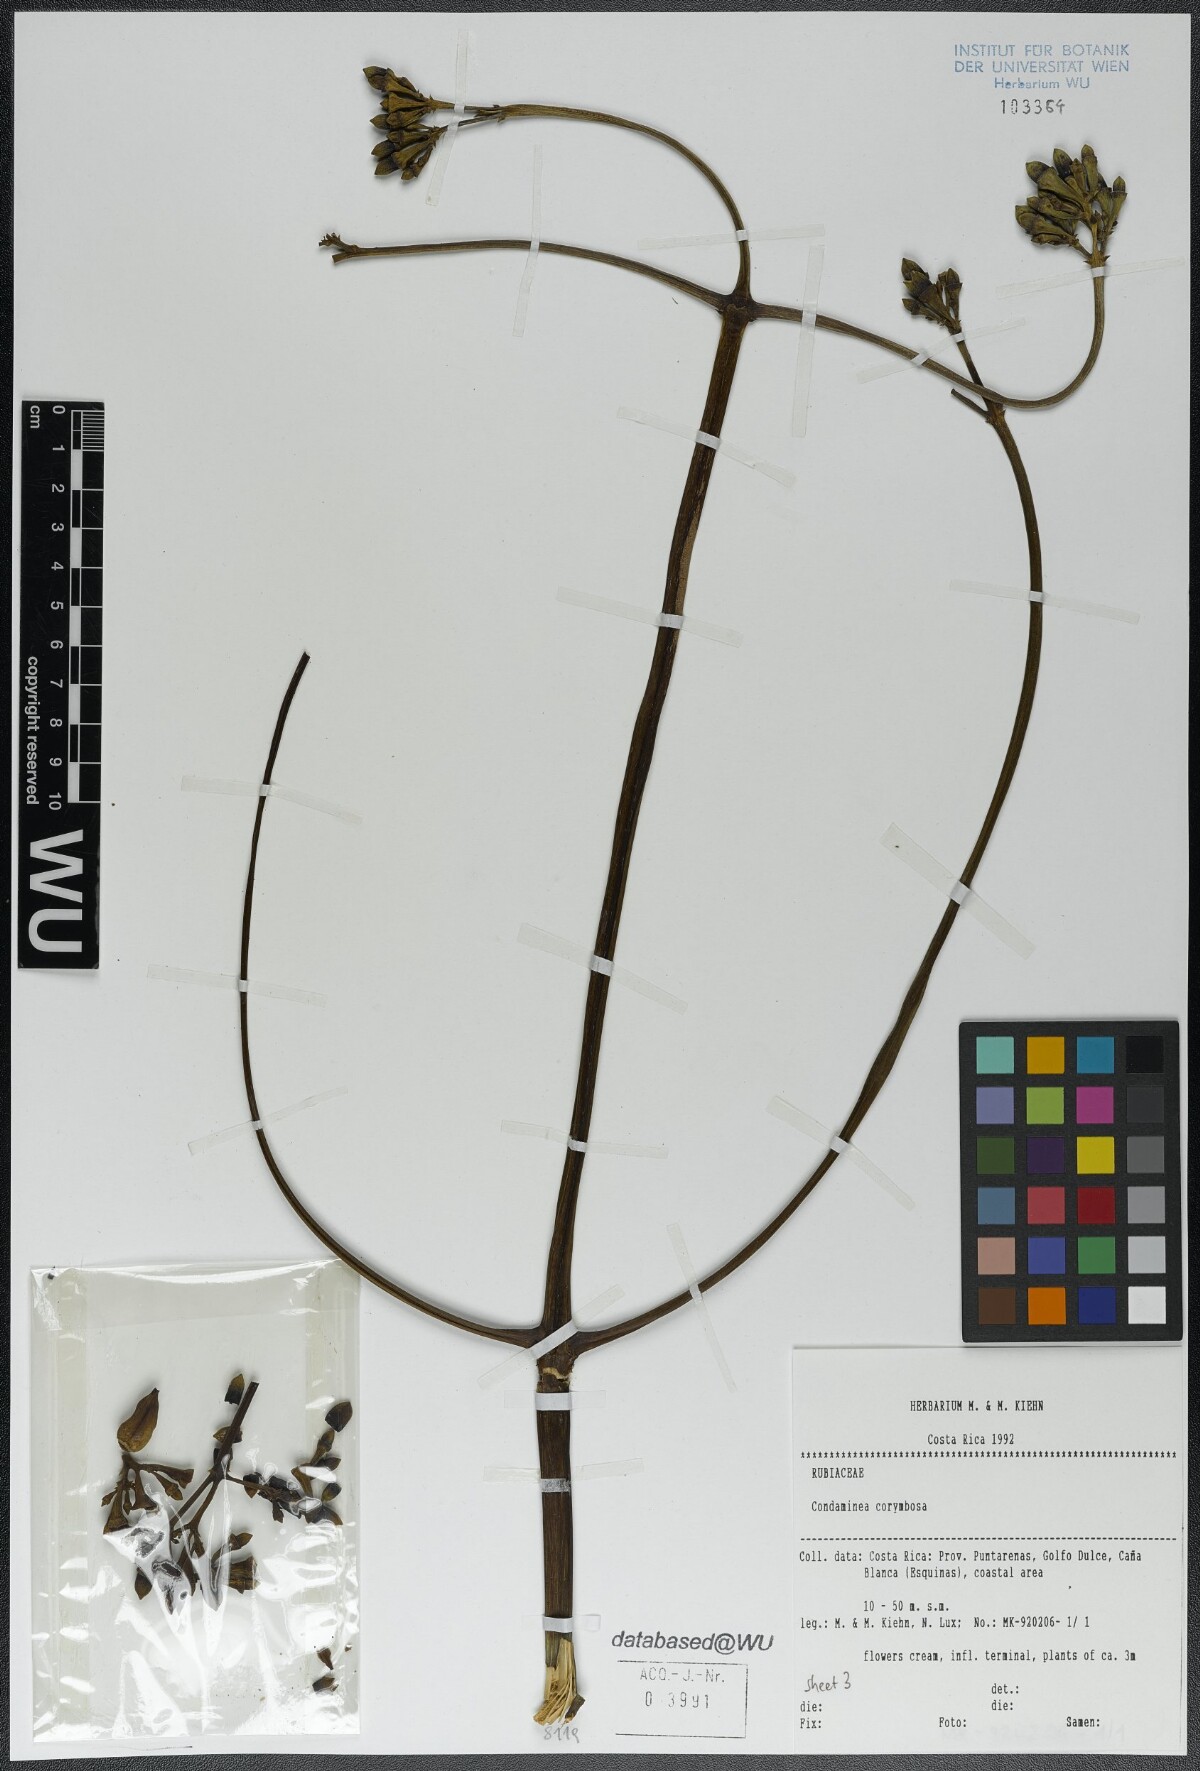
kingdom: Plantae
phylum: Tracheophyta
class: Magnoliopsida
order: Gentianales
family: Rubiaceae
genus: Condaminea
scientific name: Condaminea corymbosa
